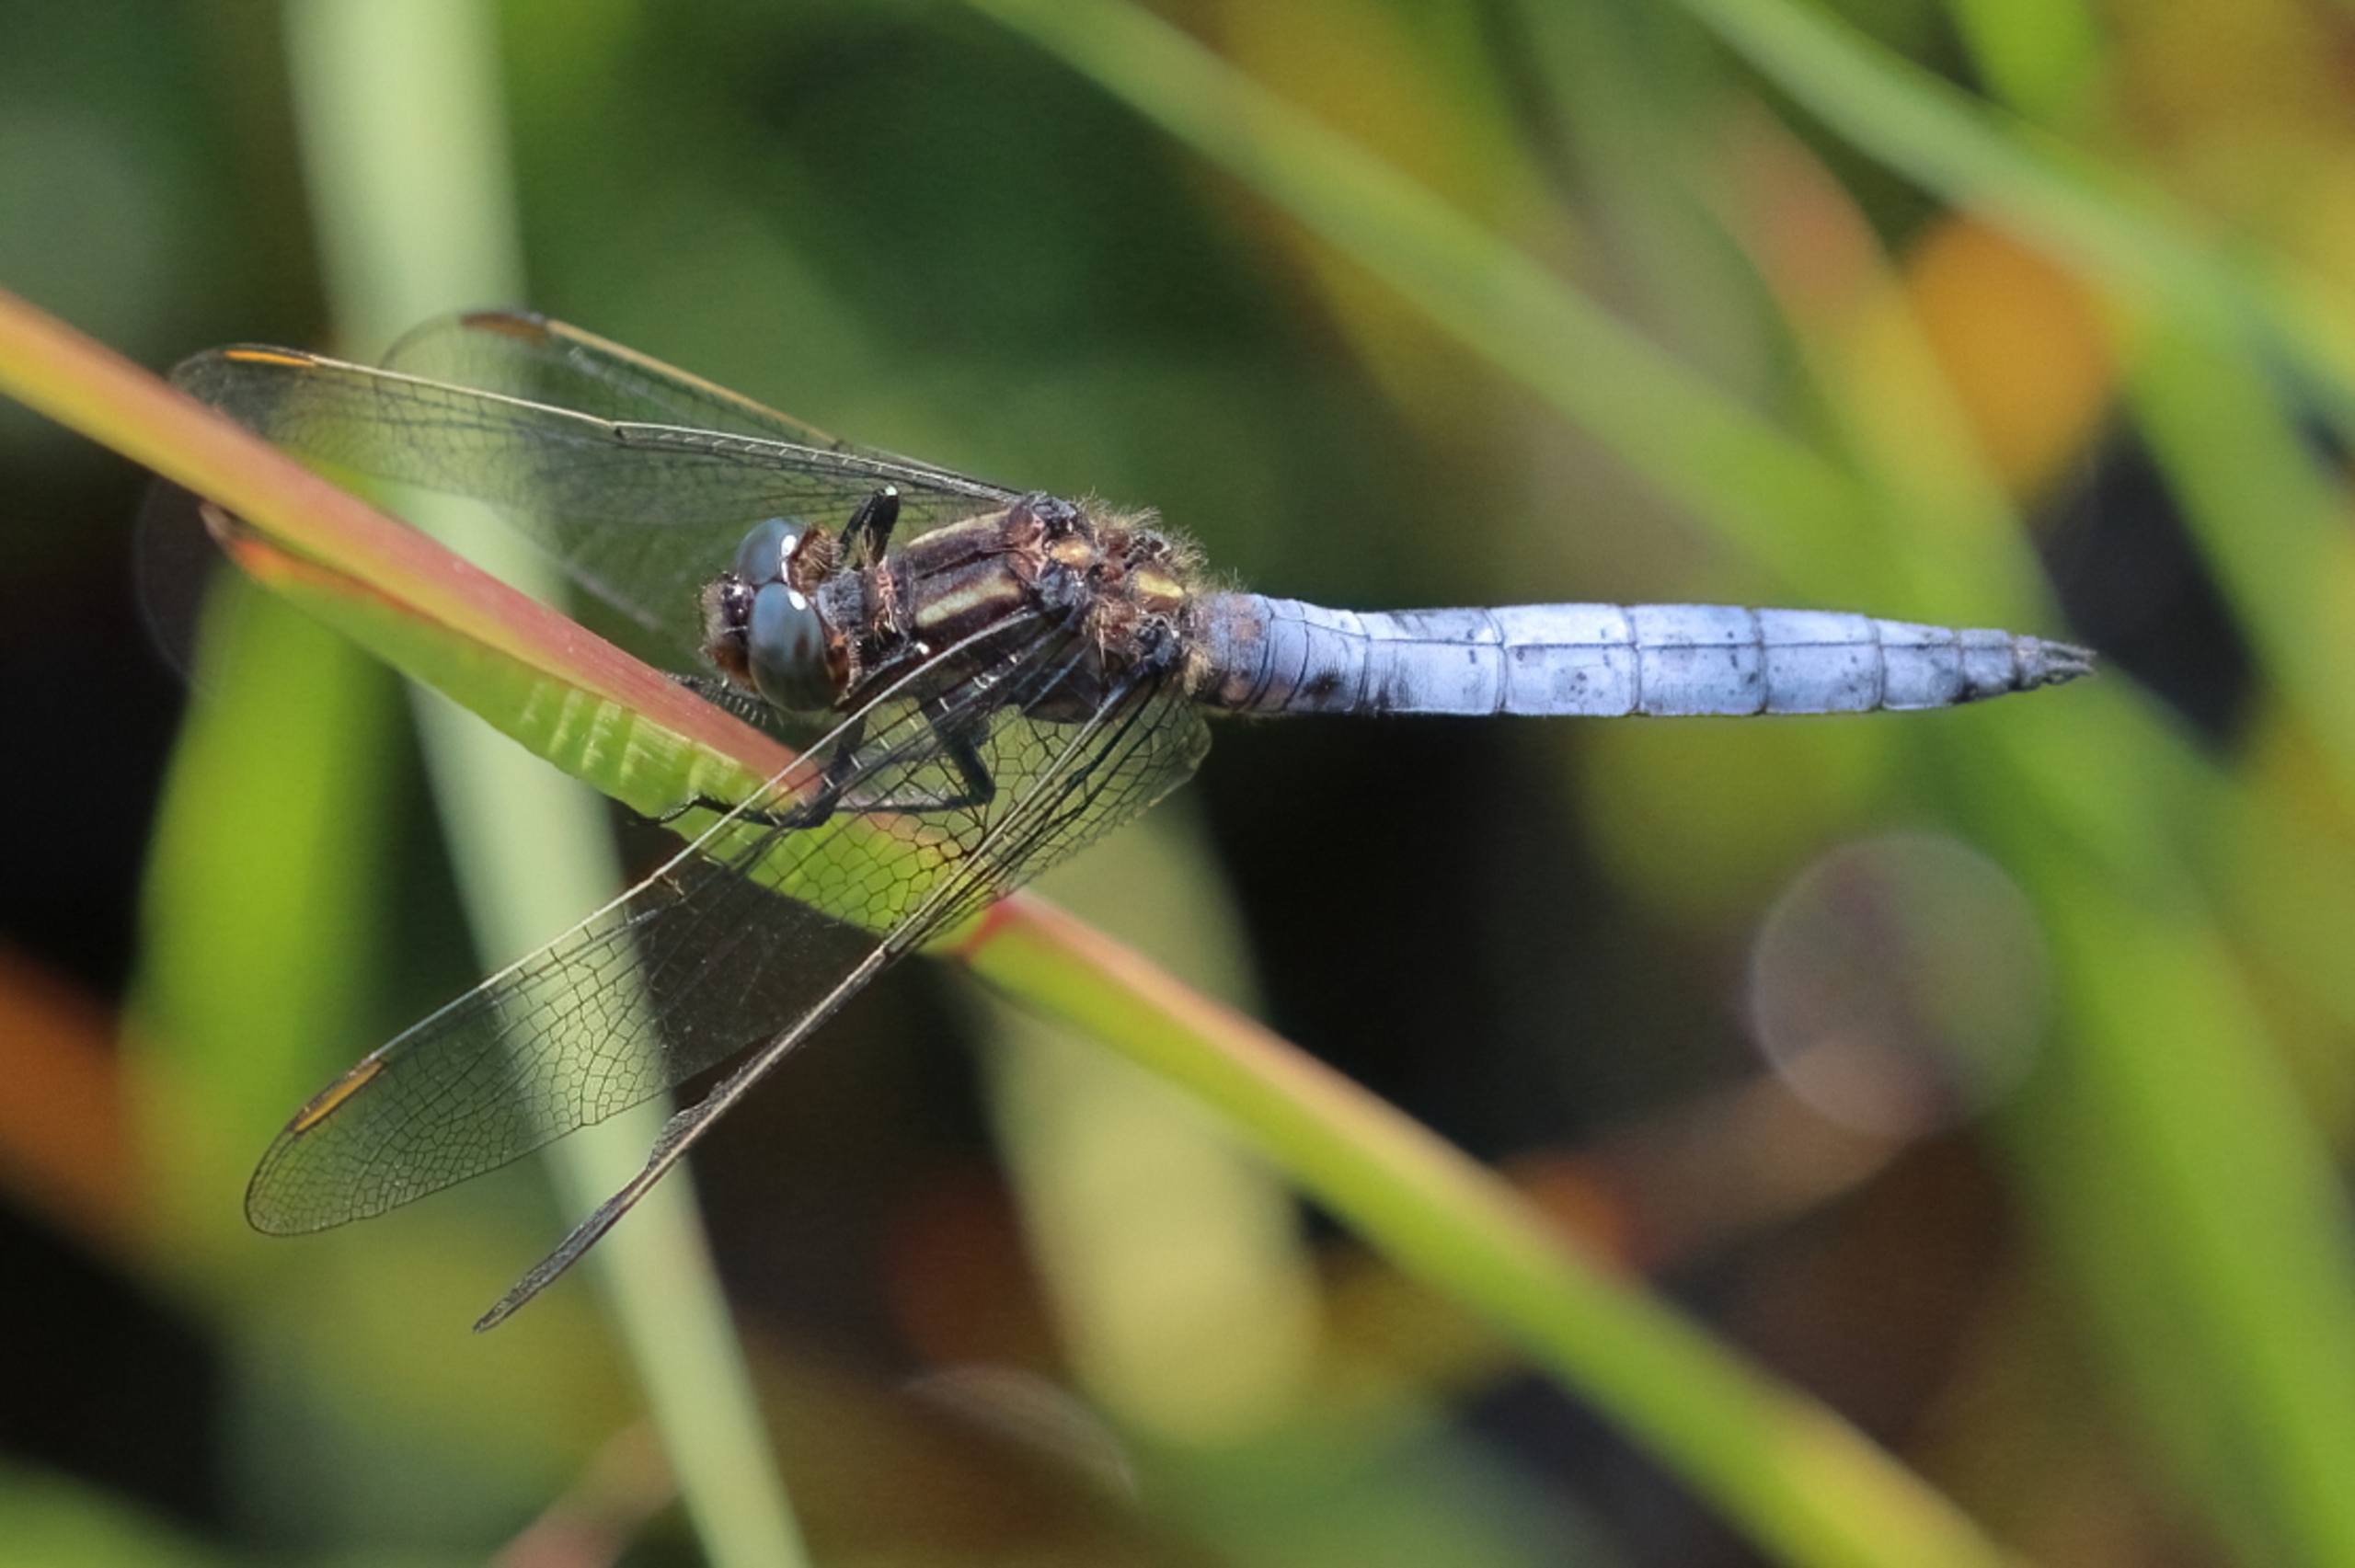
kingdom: Animalia
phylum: Arthropoda
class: Insecta
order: Odonata
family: Libellulidae
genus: Orthetrum
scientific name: Orthetrum coerulescens
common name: Lille blåpil
